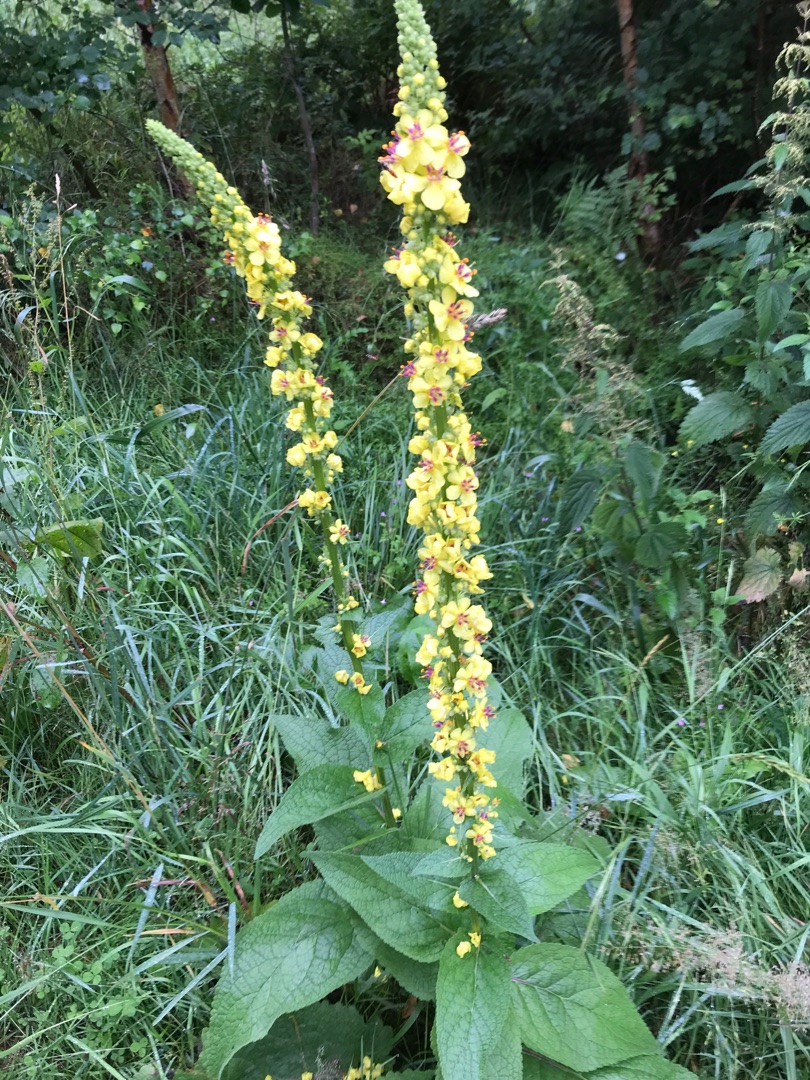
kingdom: Plantae
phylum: Tracheophyta
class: Magnoliopsida
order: Lamiales
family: Scrophulariaceae
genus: Verbascum
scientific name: Verbascum nigrum
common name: Mørk kongelys
